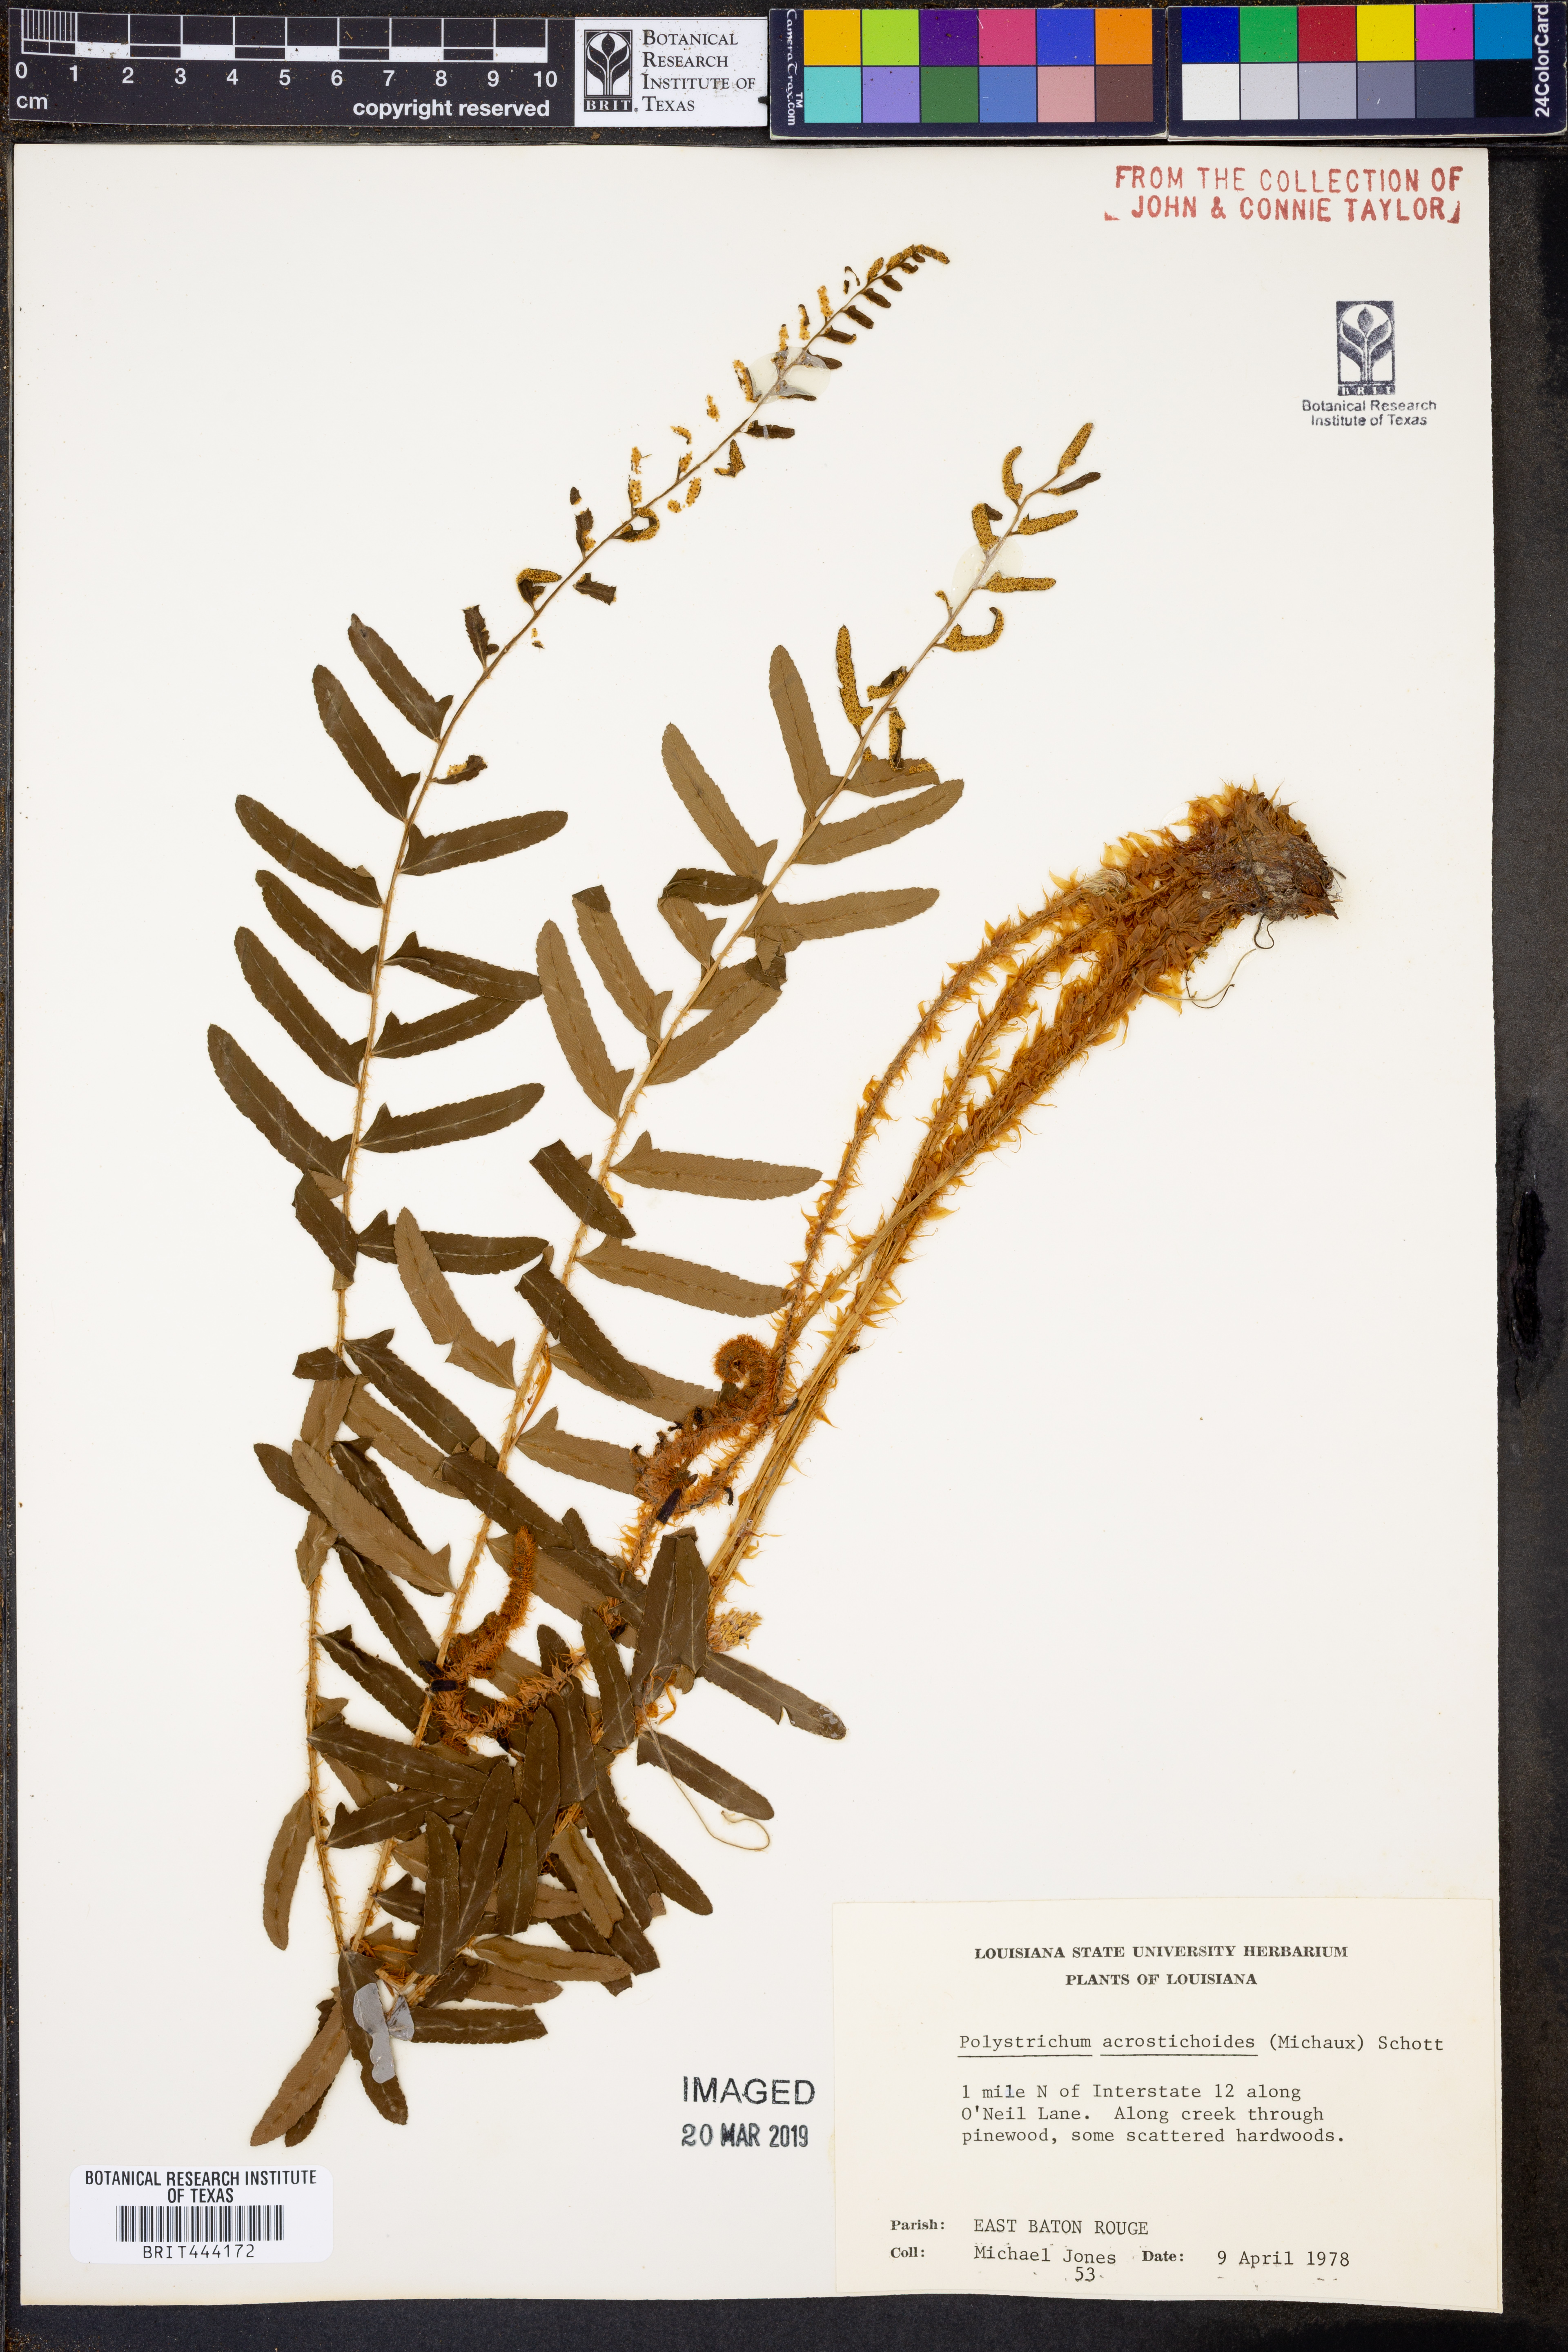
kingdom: Plantae
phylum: Tracheophyta
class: Polypodiopsida
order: Polypodiales
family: Dryopteridaceae
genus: Polystichum
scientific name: Polystichum acrostichoides
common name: Christmas fern
